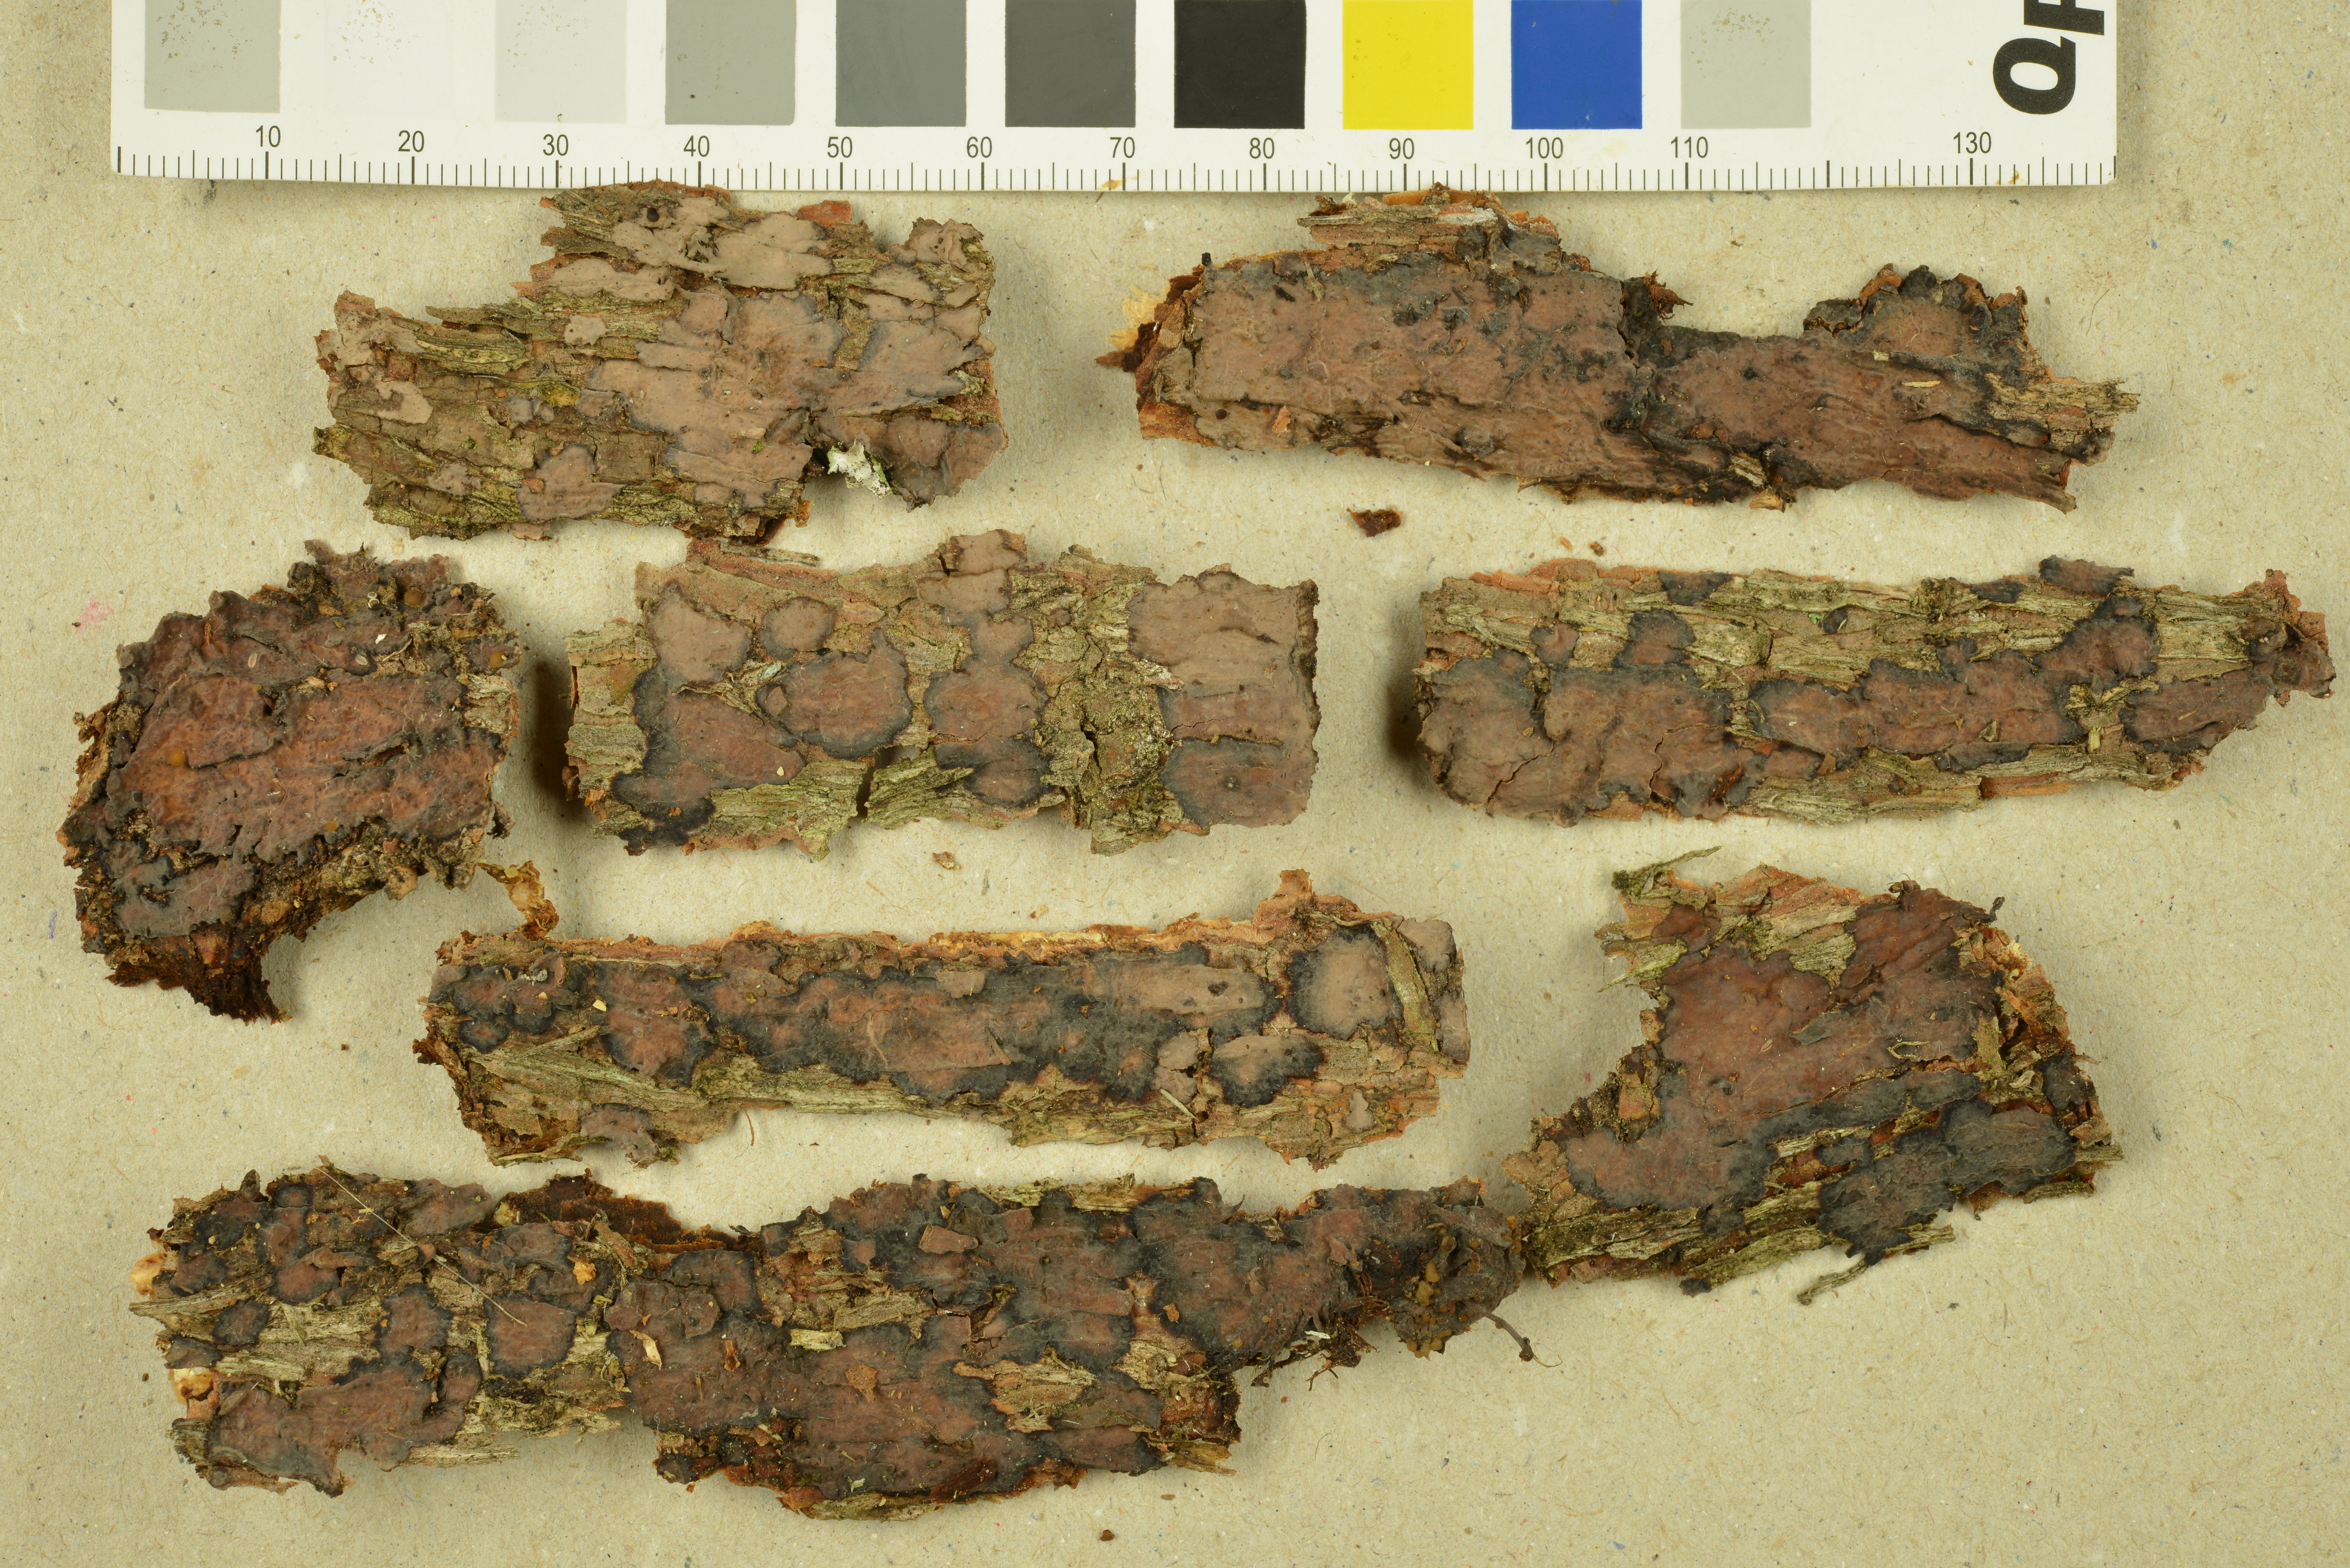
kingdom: Fungi
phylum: Basidiomycota
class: Agaricomycetes
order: Russulales
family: Peniophoraceae
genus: Peniophora
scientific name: Peniophora pithya
